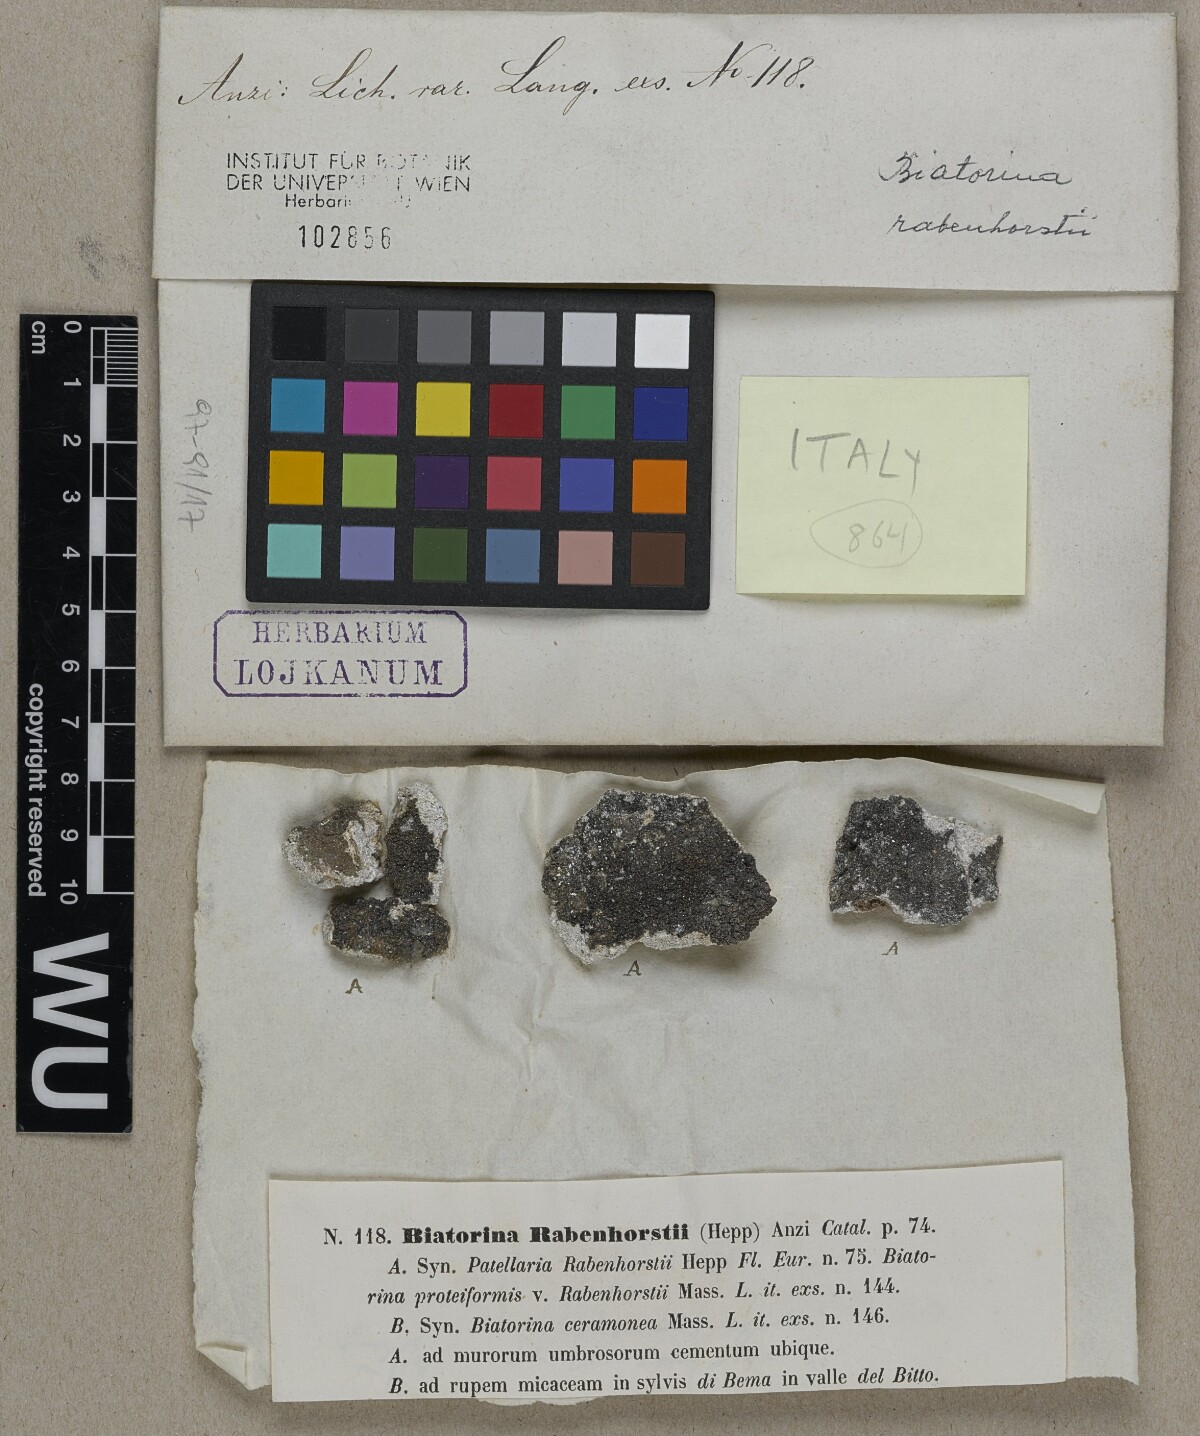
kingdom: Fungi
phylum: Ascomycota
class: Lecanoromycetes
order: Lecanorales
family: Ramalinaceae
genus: Lecania
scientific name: Lecania rabenhorstii
